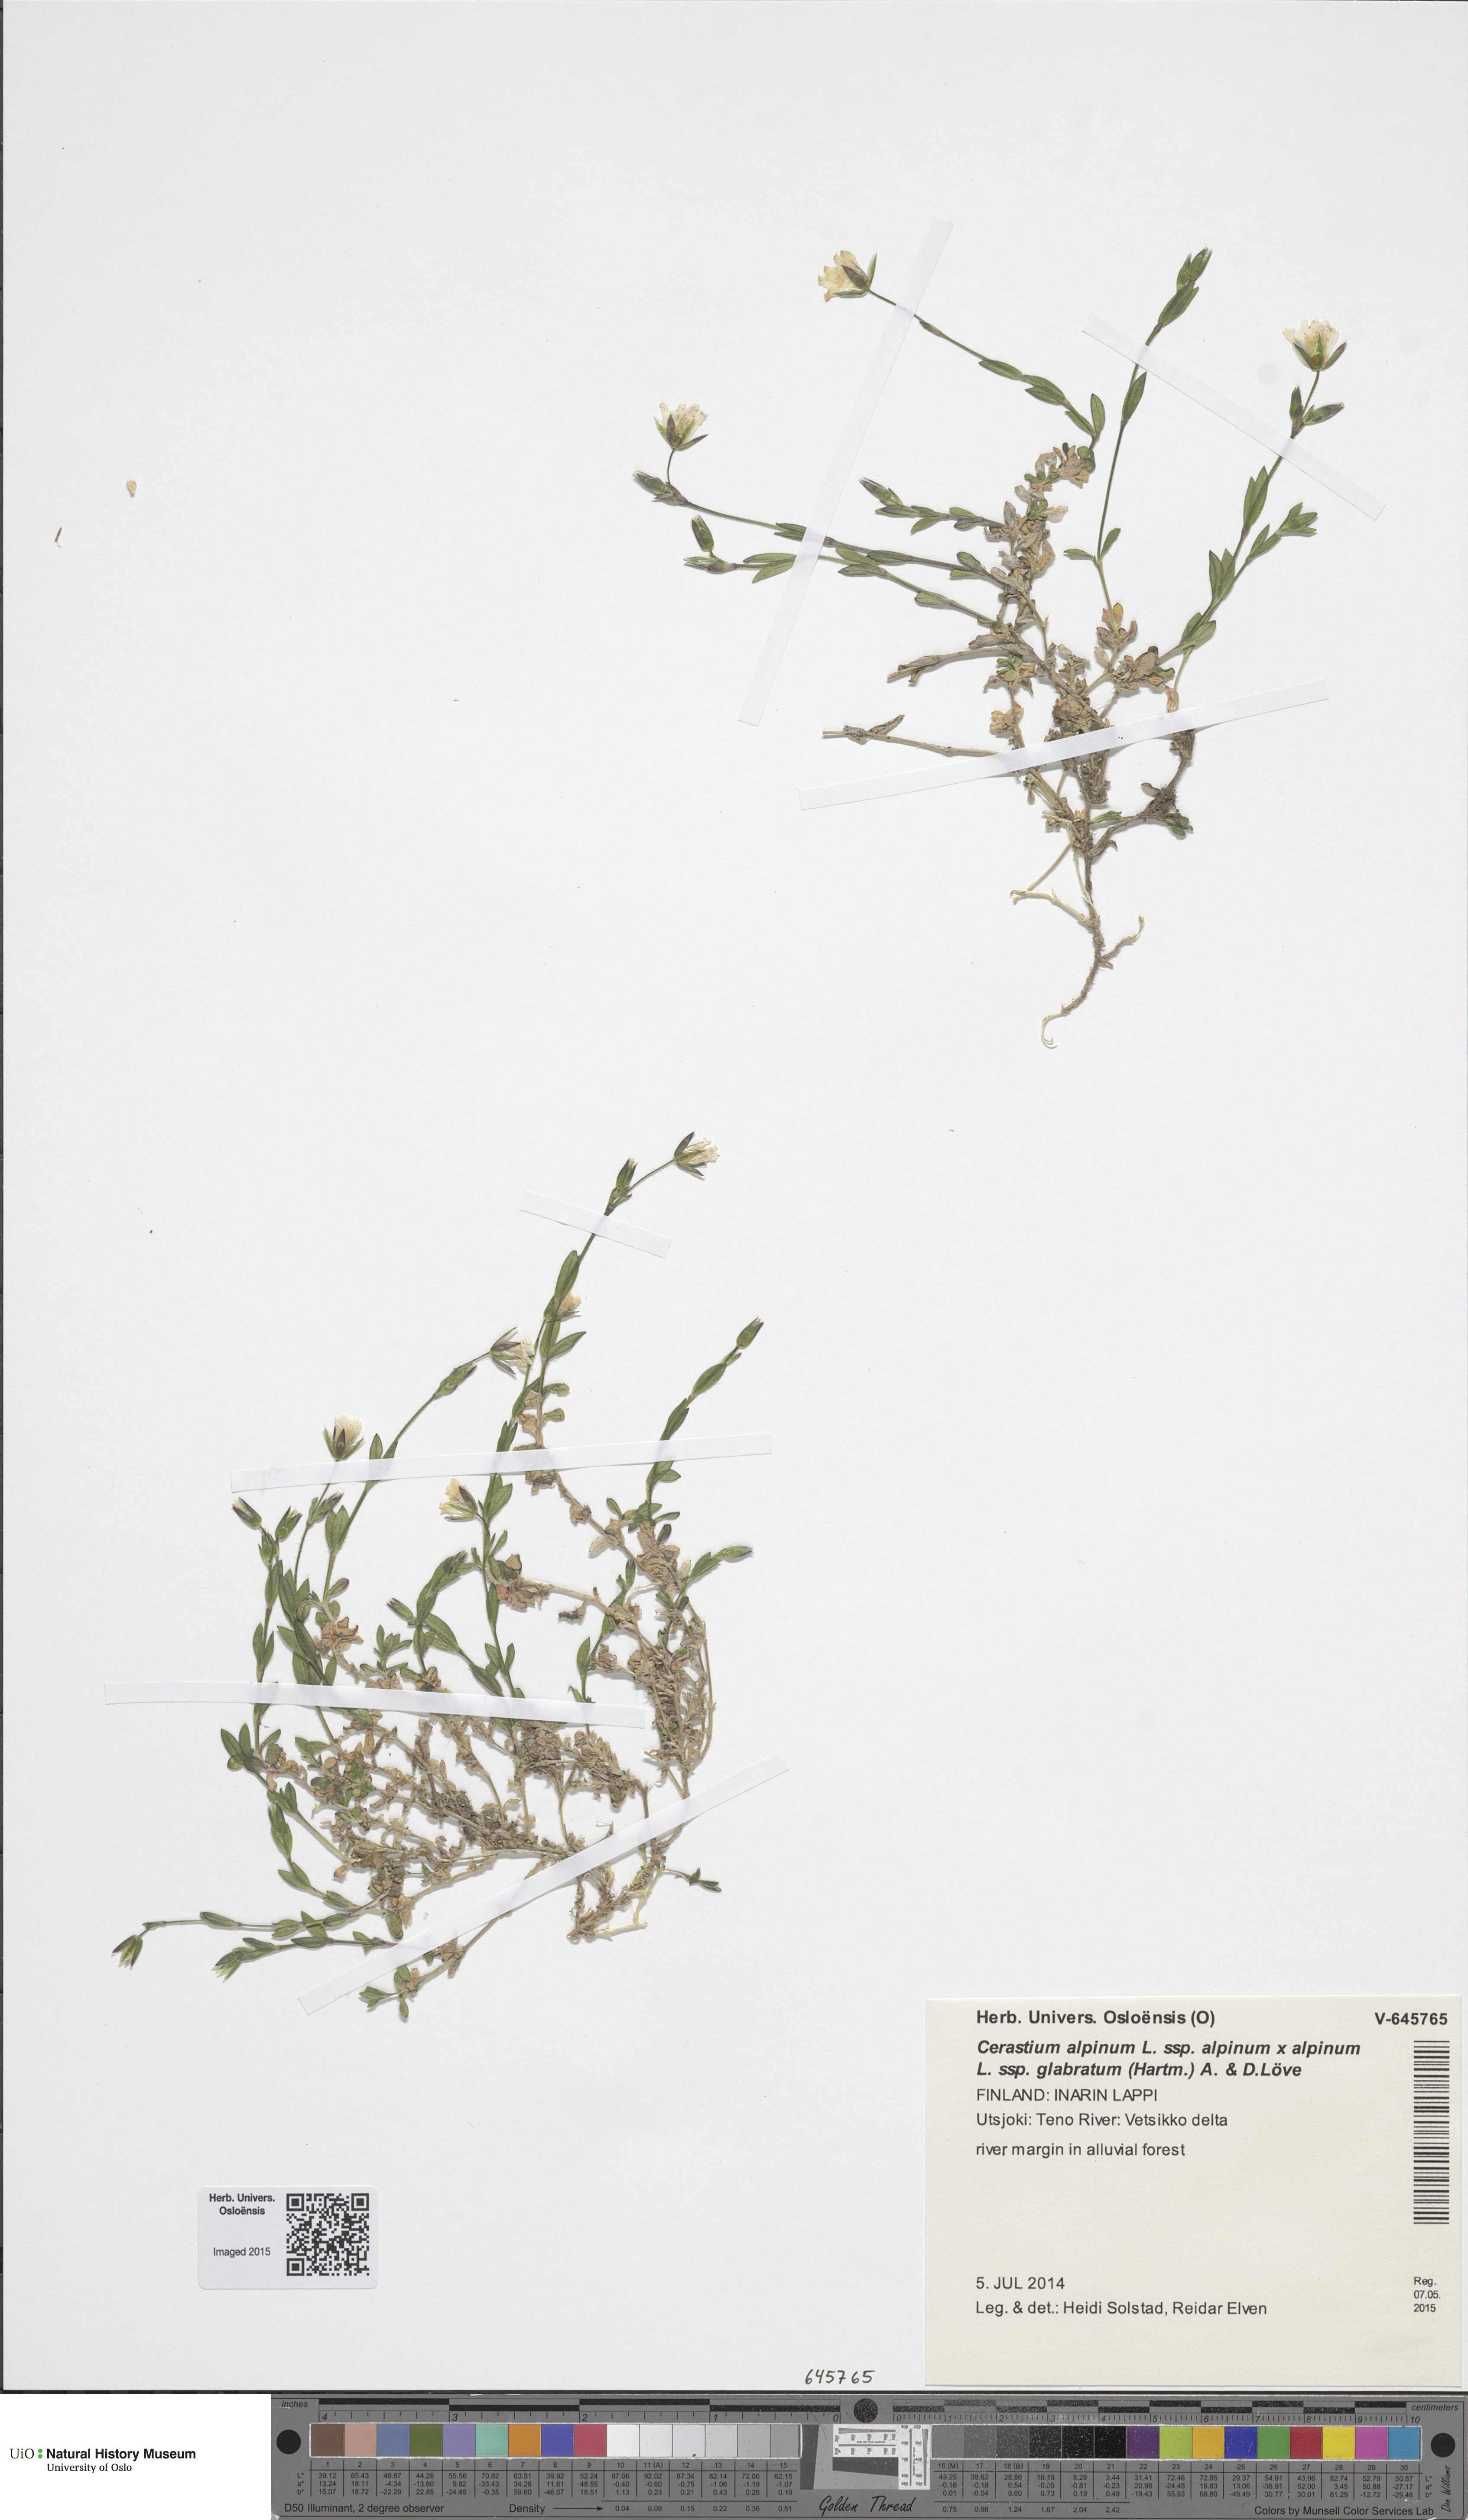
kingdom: Plantae
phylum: Tracheophyta
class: Magnoliopsida
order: Caryophyllales
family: Caryophyllaceae
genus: Cerastium
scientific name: Cerastium
